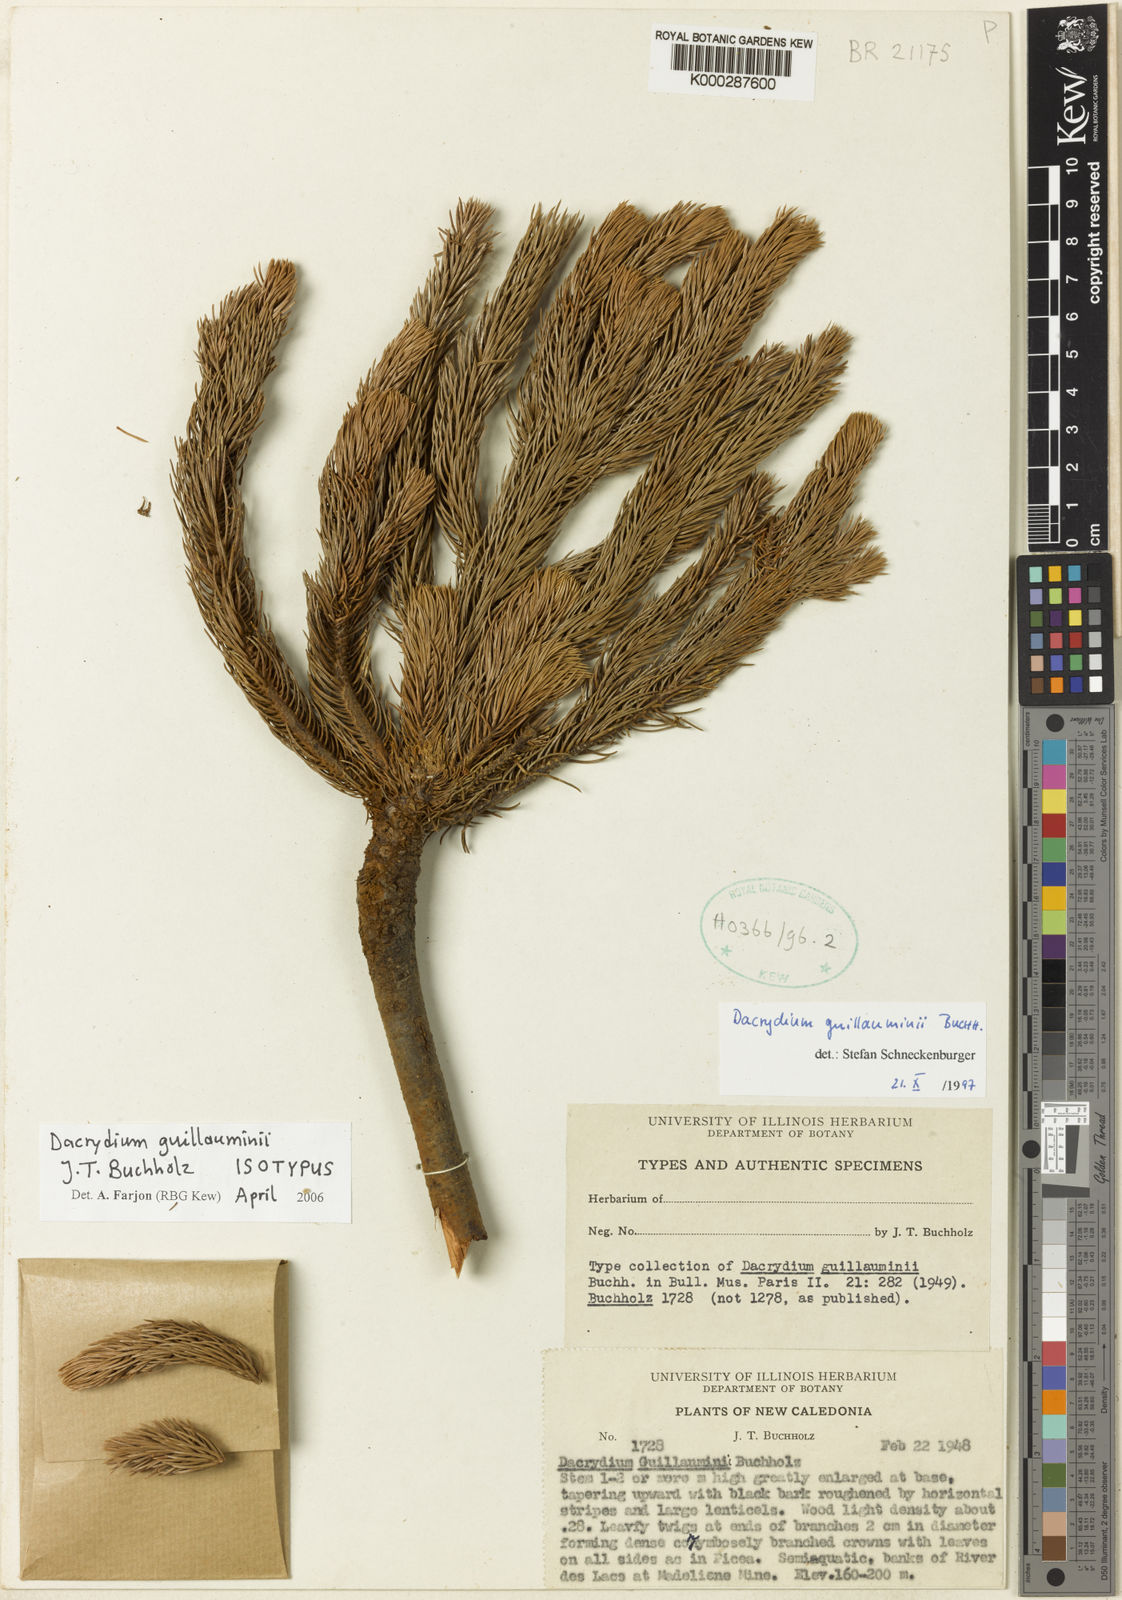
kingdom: Plantae
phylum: Tracheophyta
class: Pinopsida
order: Pinales
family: Podocarpaceae
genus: Dacrydium
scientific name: Dacrydium guillauminii
